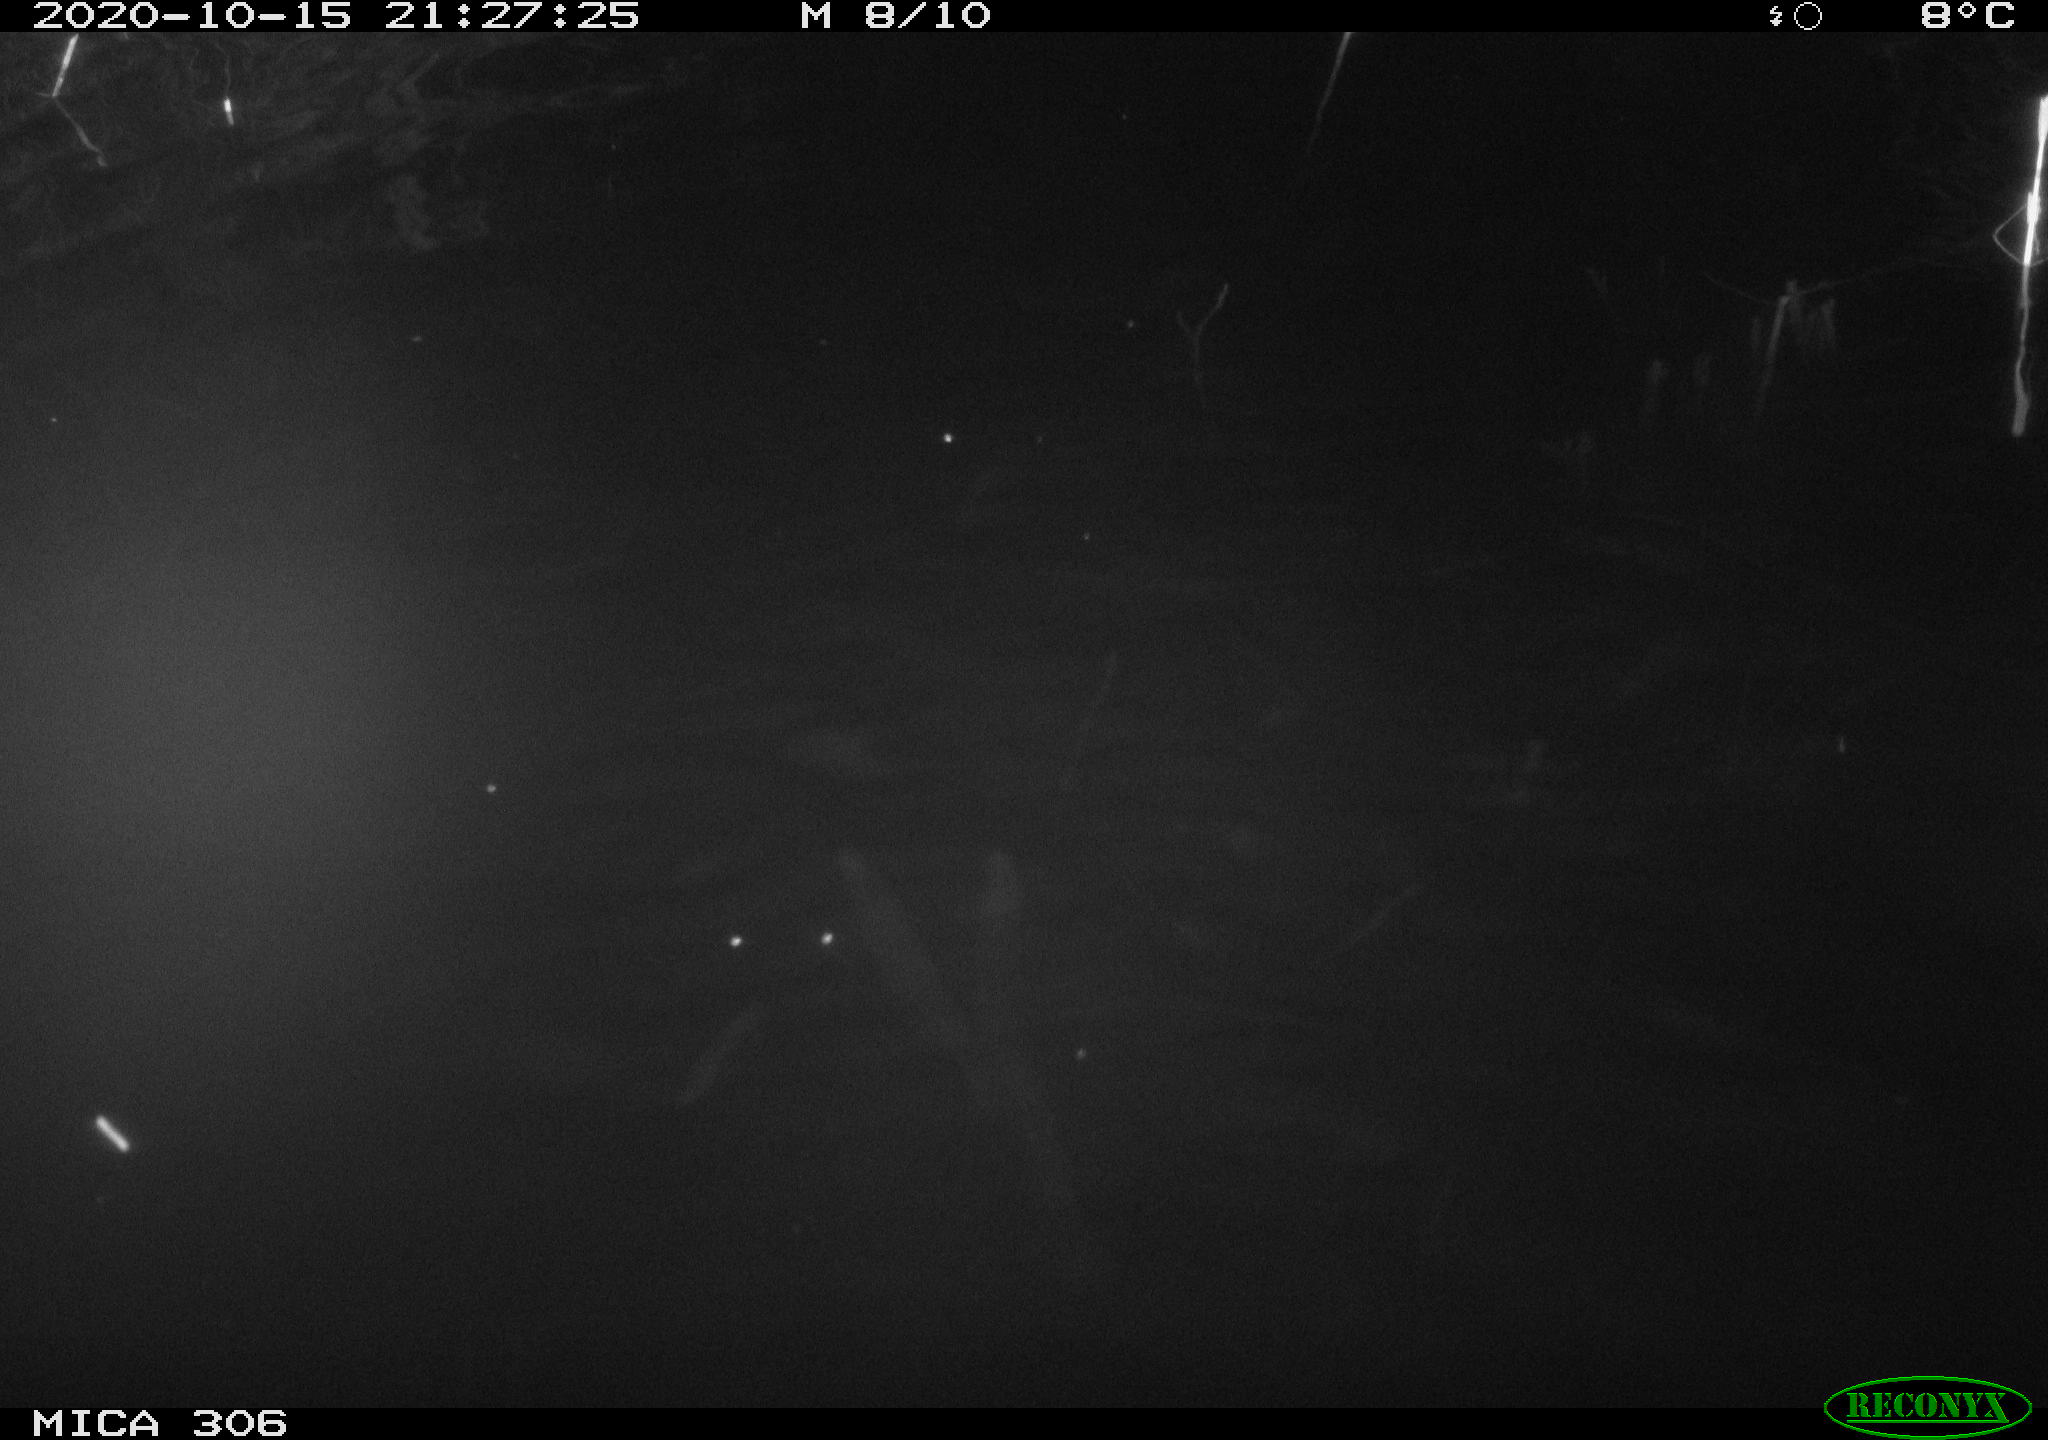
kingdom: Animalia
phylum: Chordata
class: Mammalia
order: Rodentia
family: Cricetidae
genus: Ondatra
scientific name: Ondatra zibethicus
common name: Muskrat
